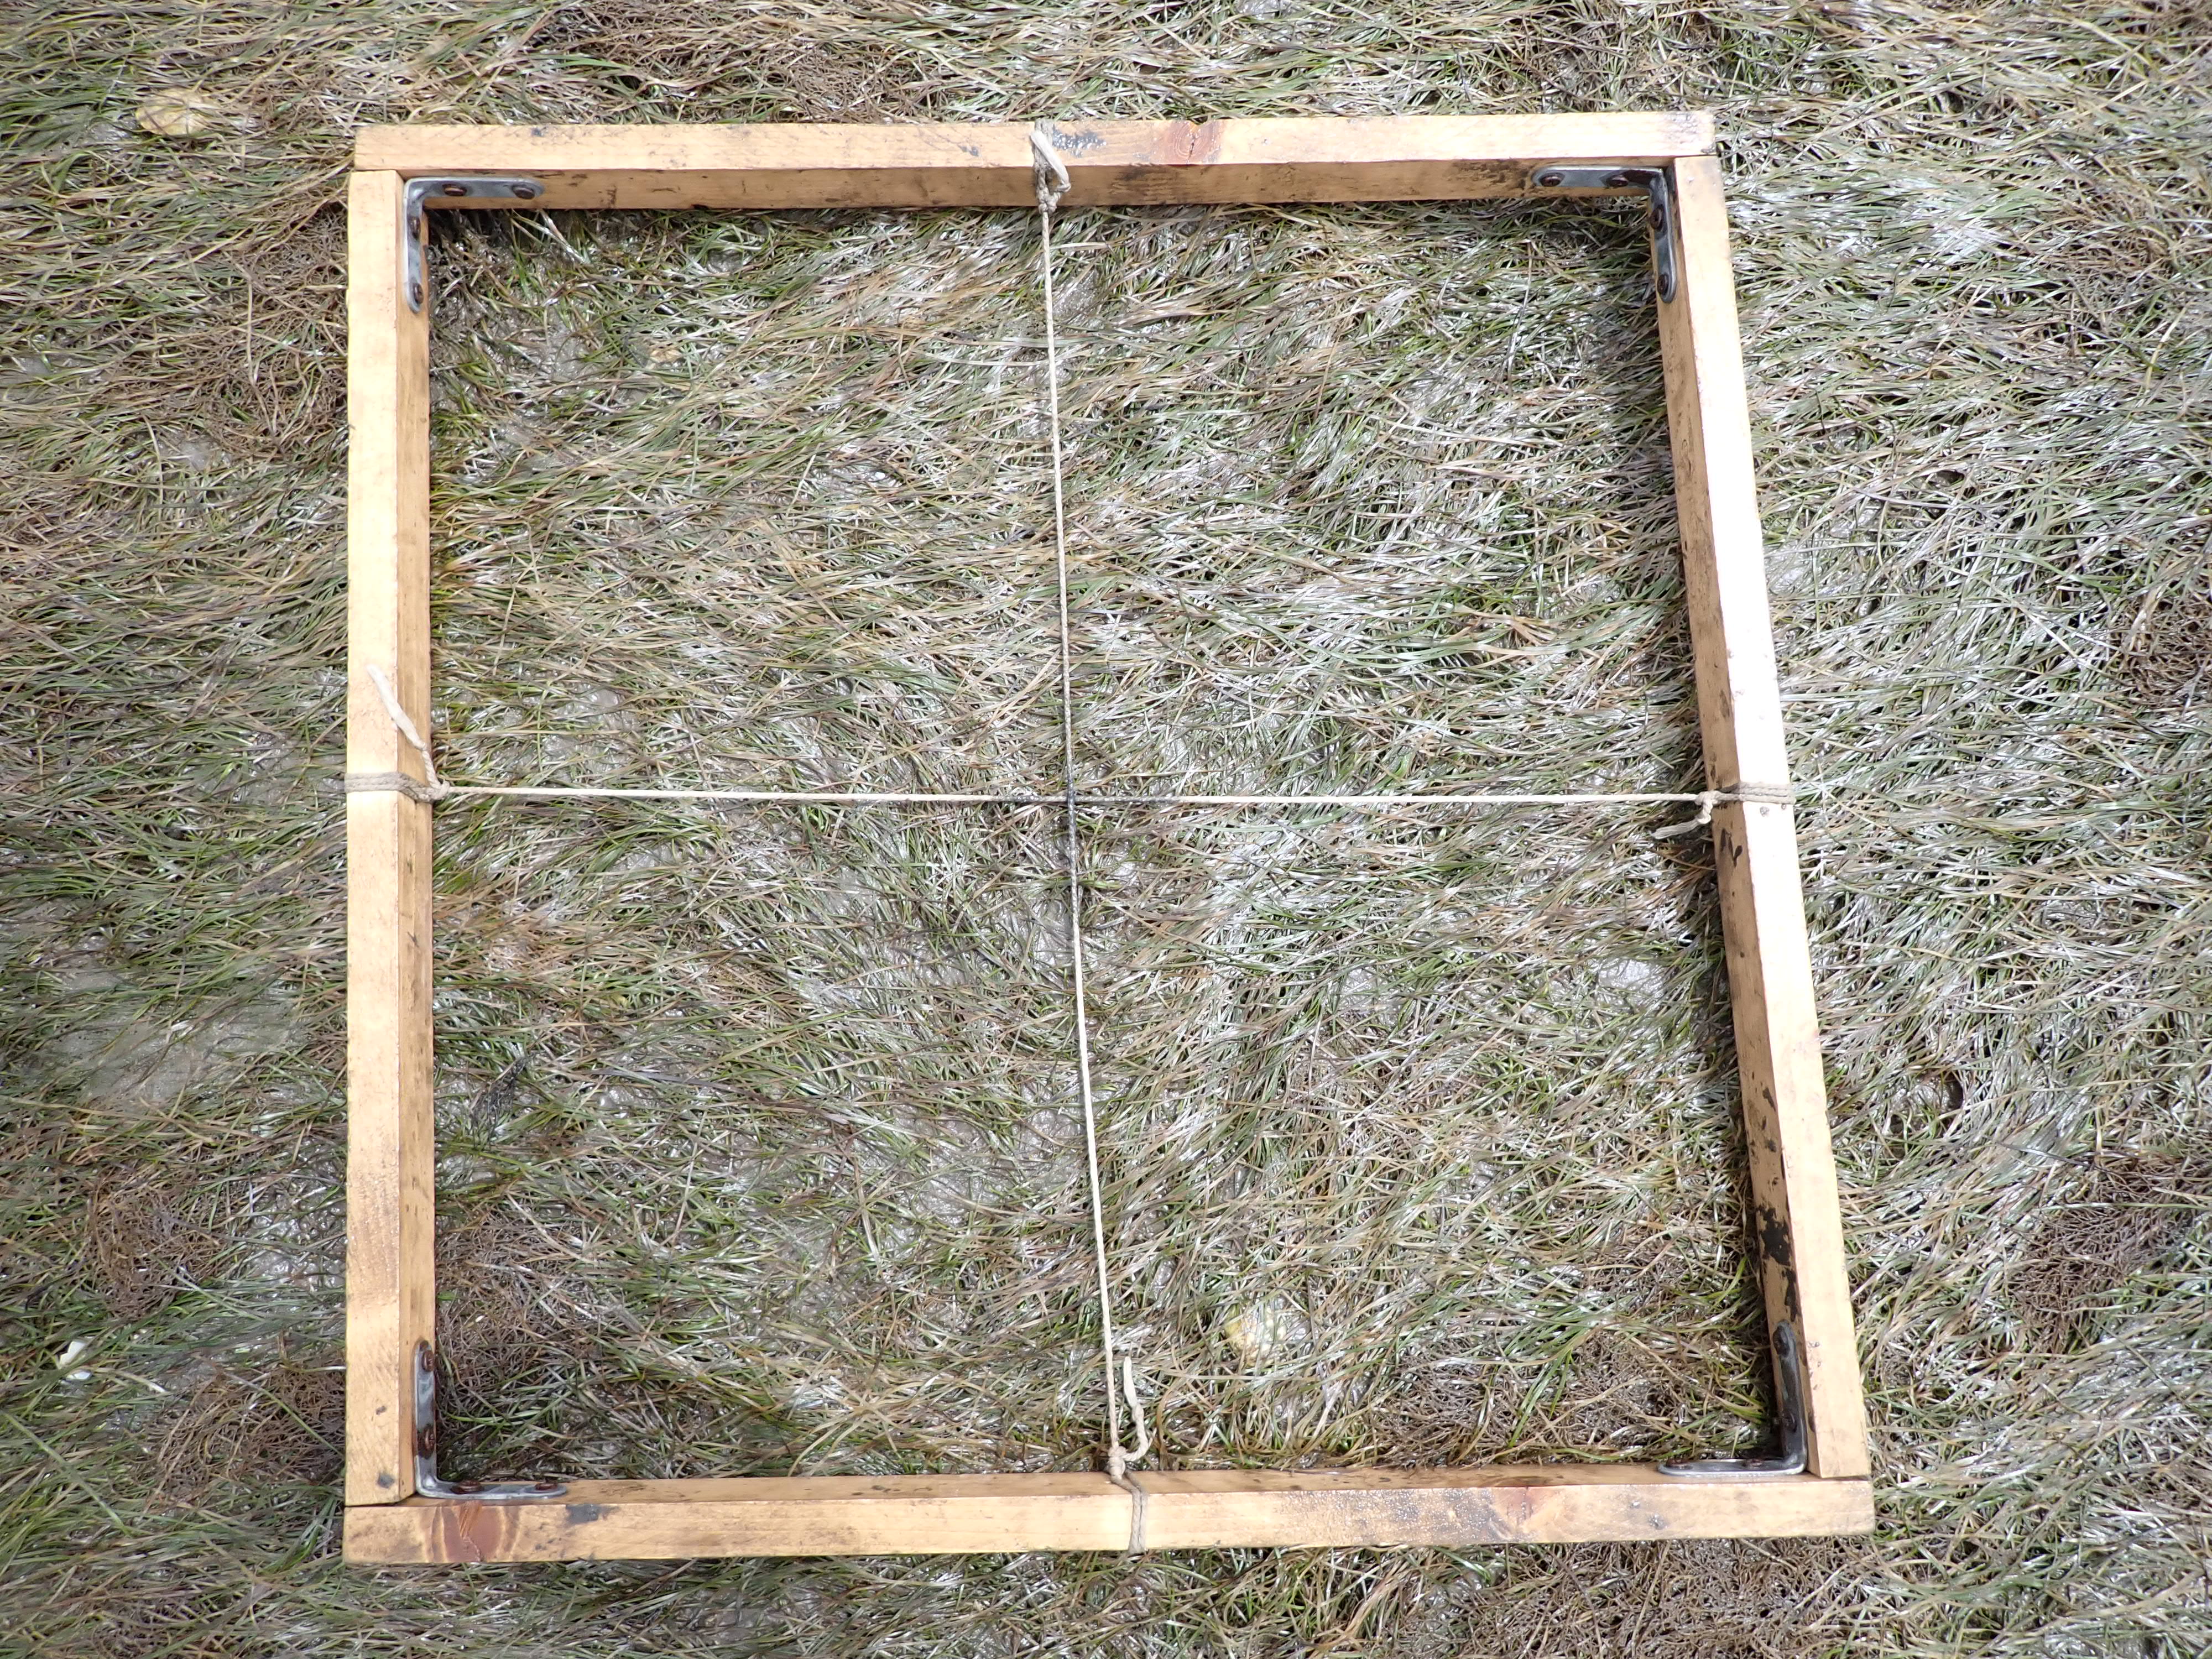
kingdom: Plantae
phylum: Tracheophyta
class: Liliopsida
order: Alismatales
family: Zosteraceae
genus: Zostera
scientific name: Zostera noltii
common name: Dwarf eelgrass
